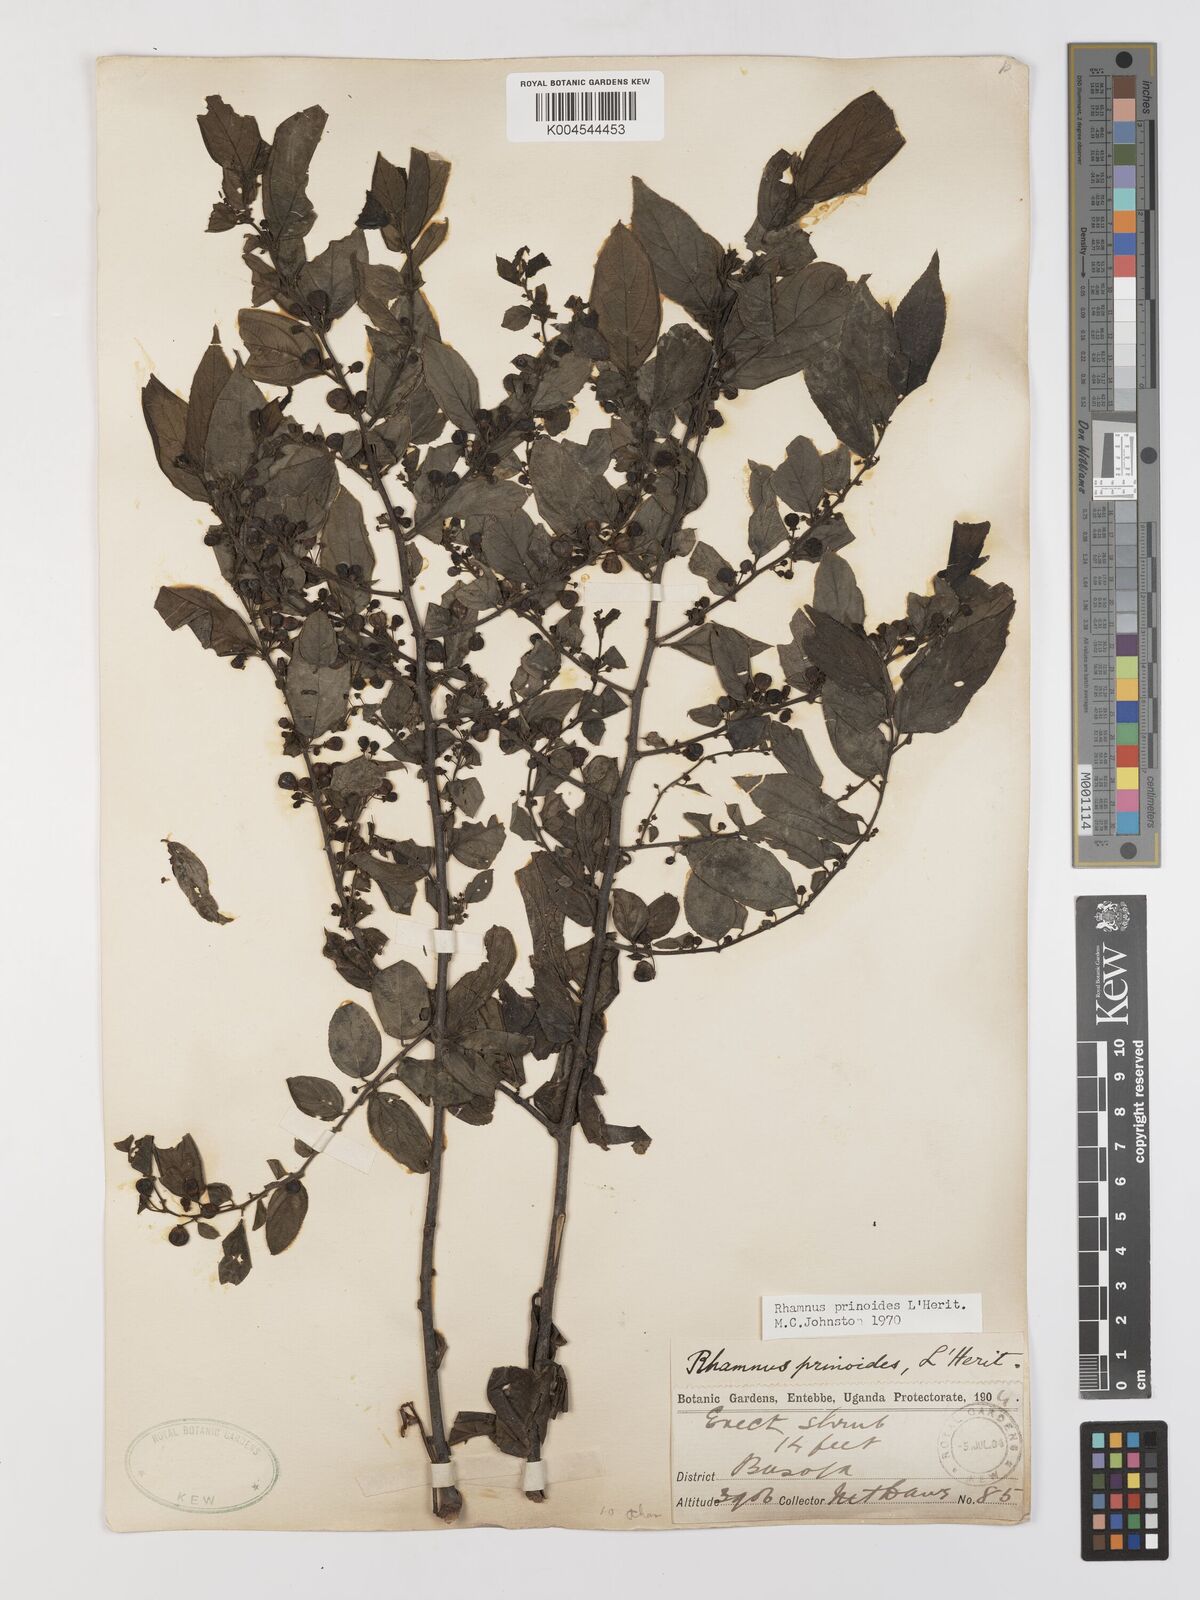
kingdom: Plantae
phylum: Tracheophyta
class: Magnoliopsida
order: Rosales
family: Rhamnaceae
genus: Rhamnus
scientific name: Rhamnus prinoides
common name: Dogwood
